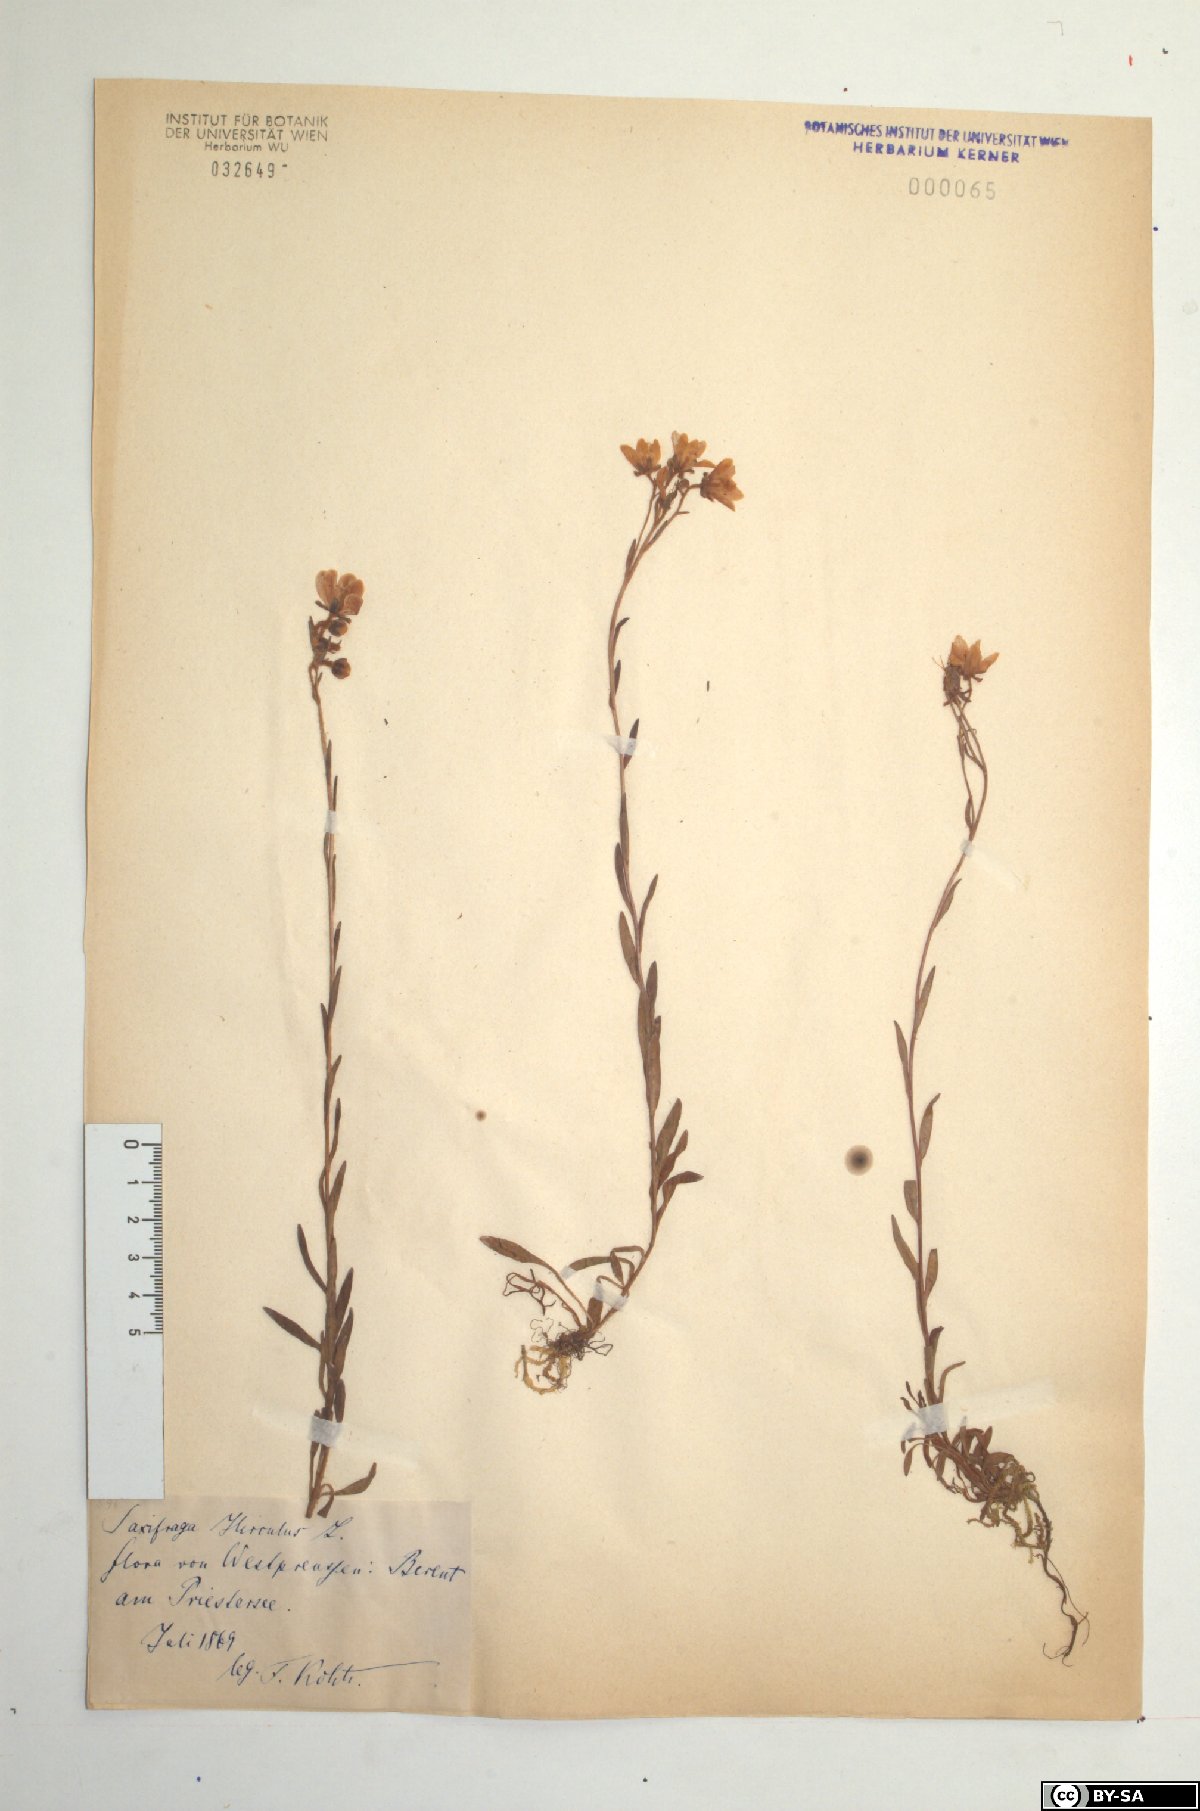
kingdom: Plantae
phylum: Tracheophyta
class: Magnoliopsida
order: Saxifragales
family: Saxifragaceae
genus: Saxifraga
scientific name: Saxifraga hirculus
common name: Yellow marsh saxifrage
